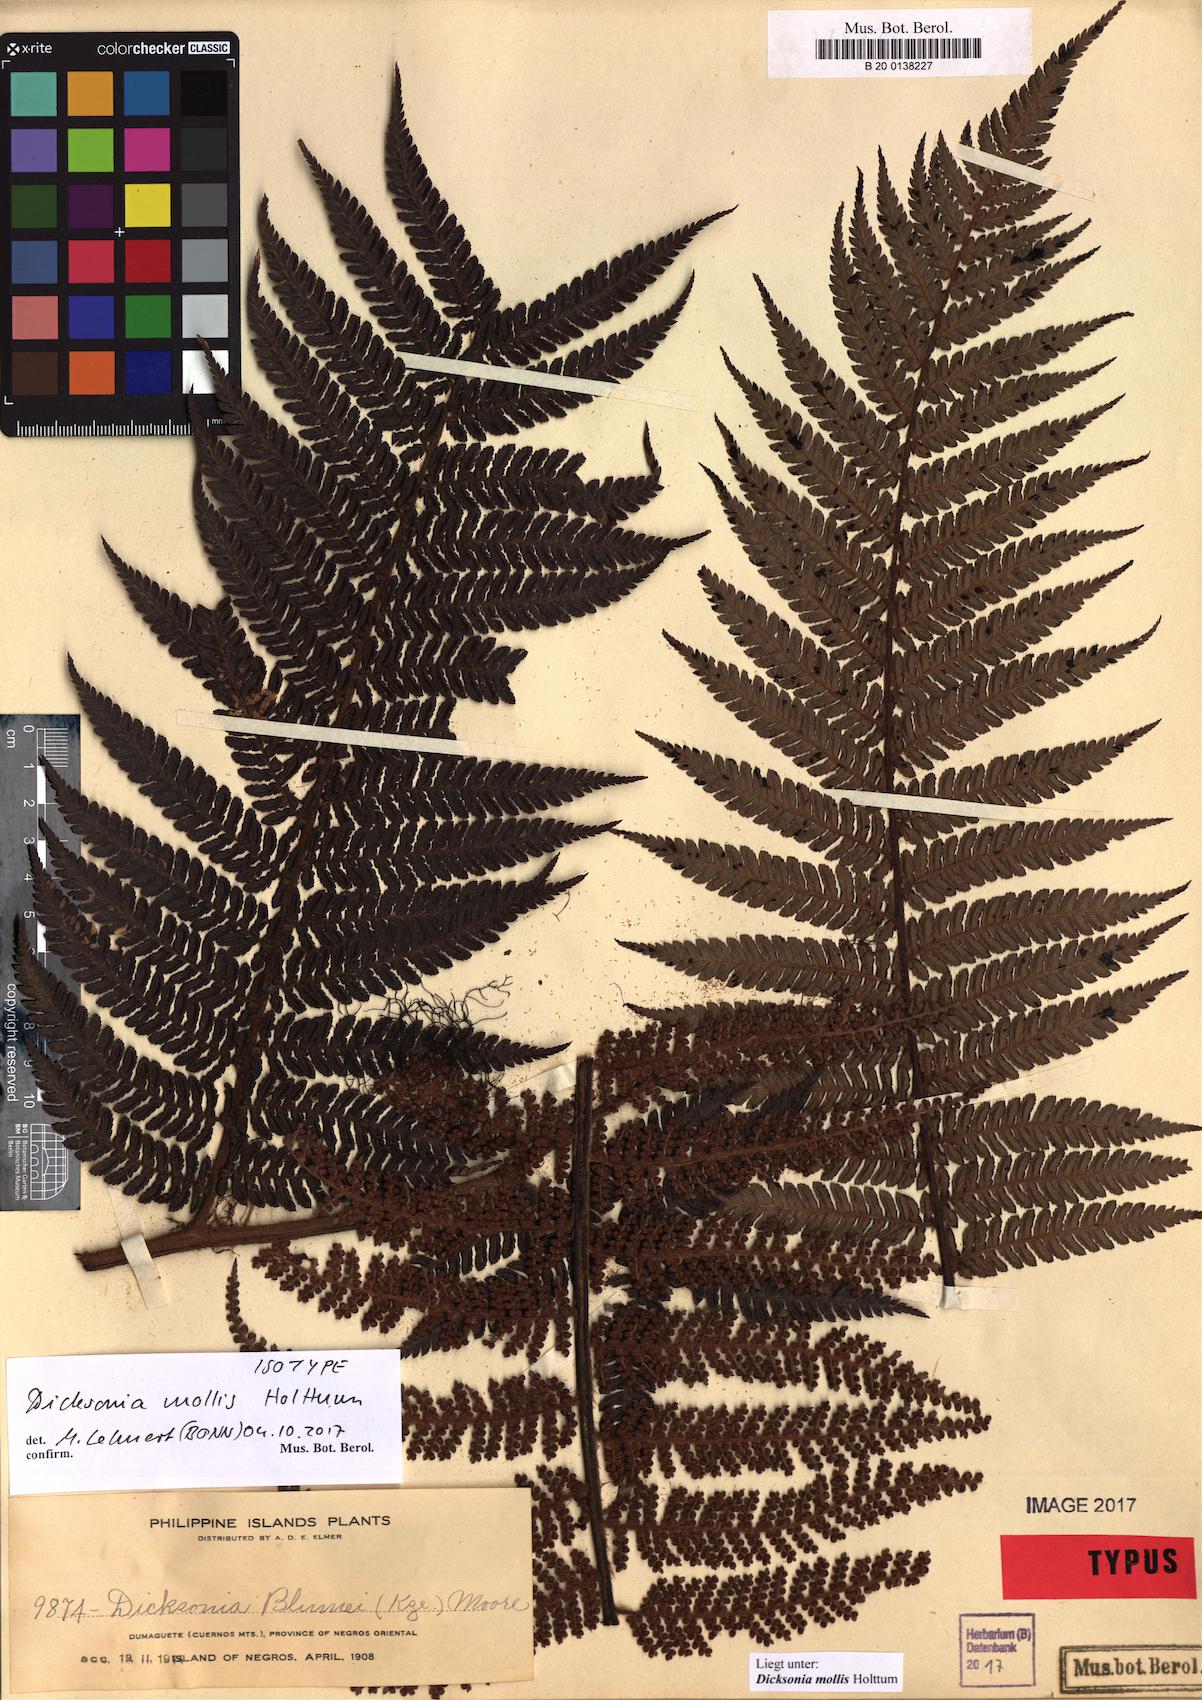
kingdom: Plantae
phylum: Tracheophyta
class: Polypodiopsida
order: Cyatheales
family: Dicksoniaceae
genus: Dicksonia
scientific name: Dicksonia mollis
